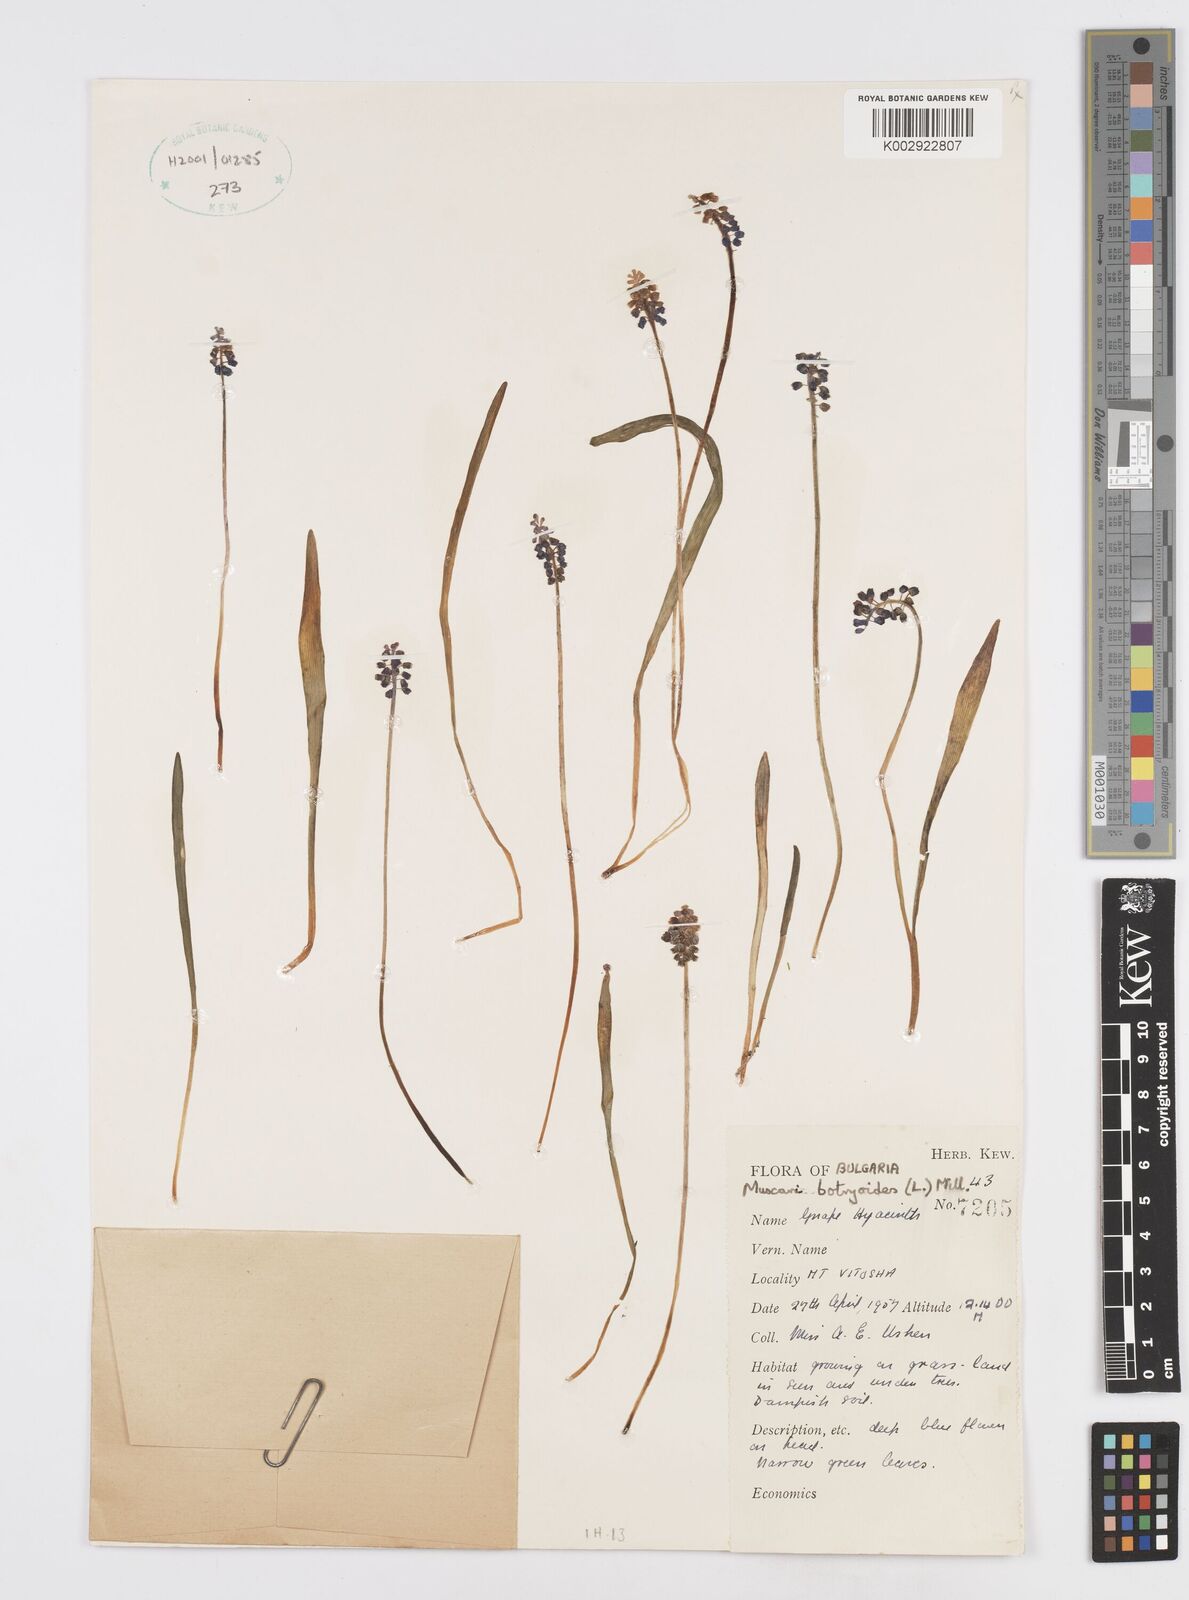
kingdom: Plantae
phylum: Tracheophyta
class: Liliopsida
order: Asparagales
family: Asparagaceae
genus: Muscari
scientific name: Muscari botryoides
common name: Compact grape-hyacinth
